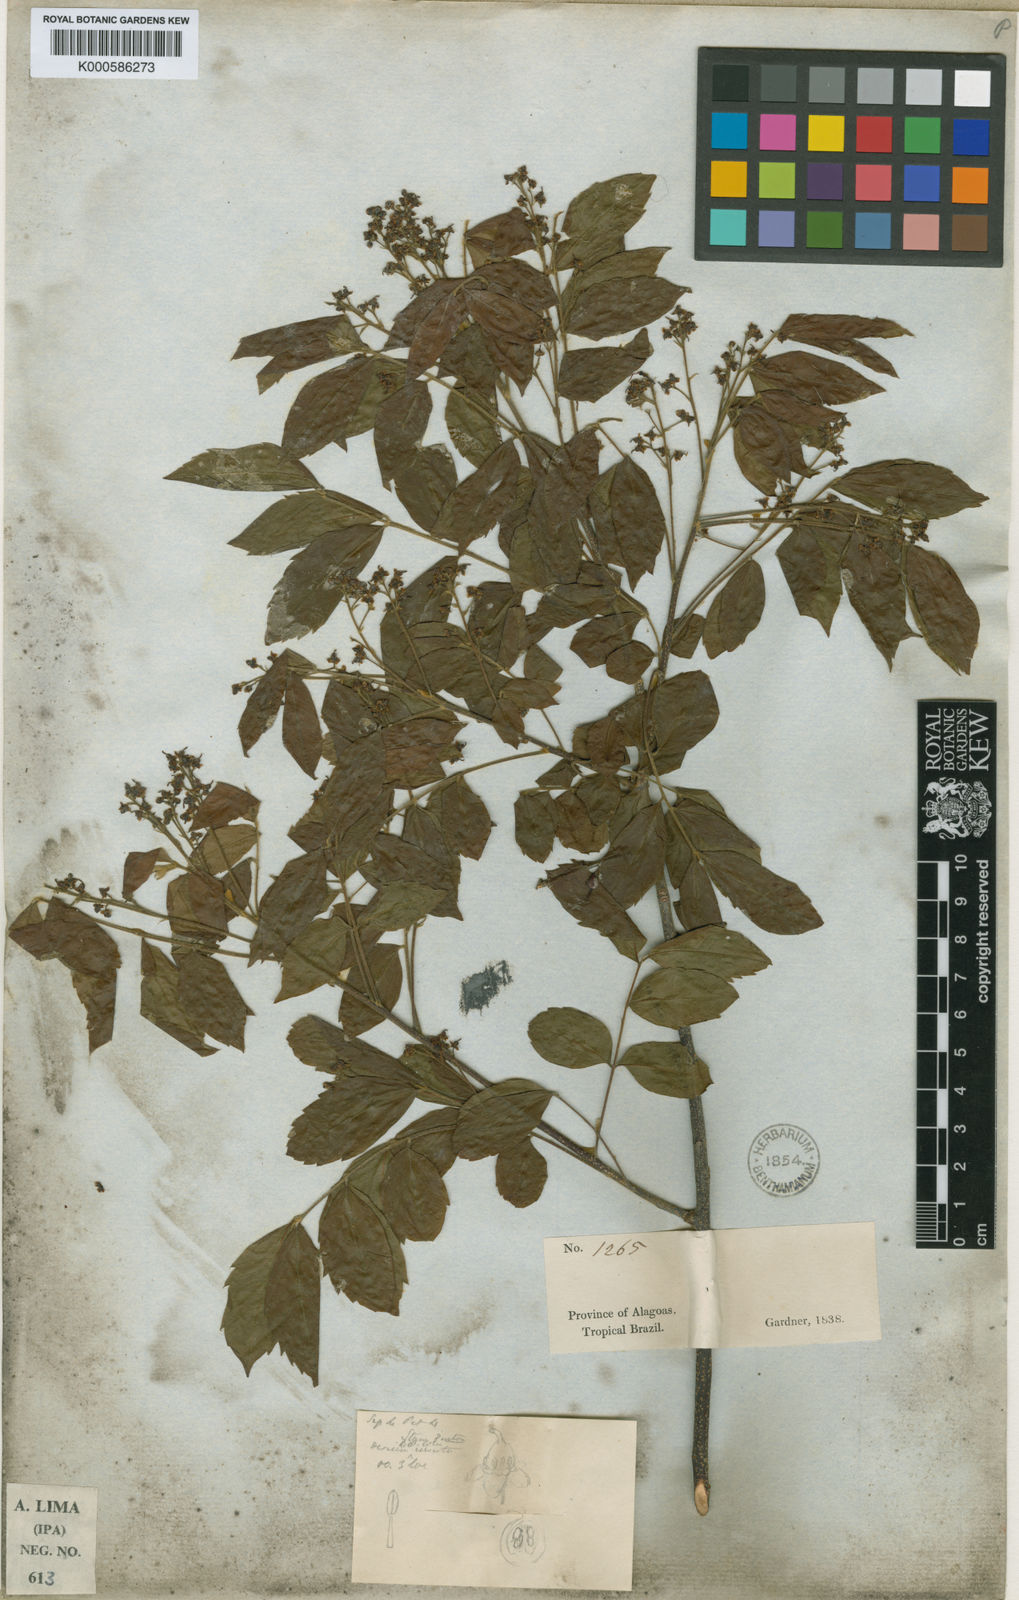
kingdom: Plantae
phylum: Tracheophyta
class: Magnoliopsida
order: Sapindales
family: Sapindaceae
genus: Averrhoidium
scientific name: Averrhoidium gardnerianum
